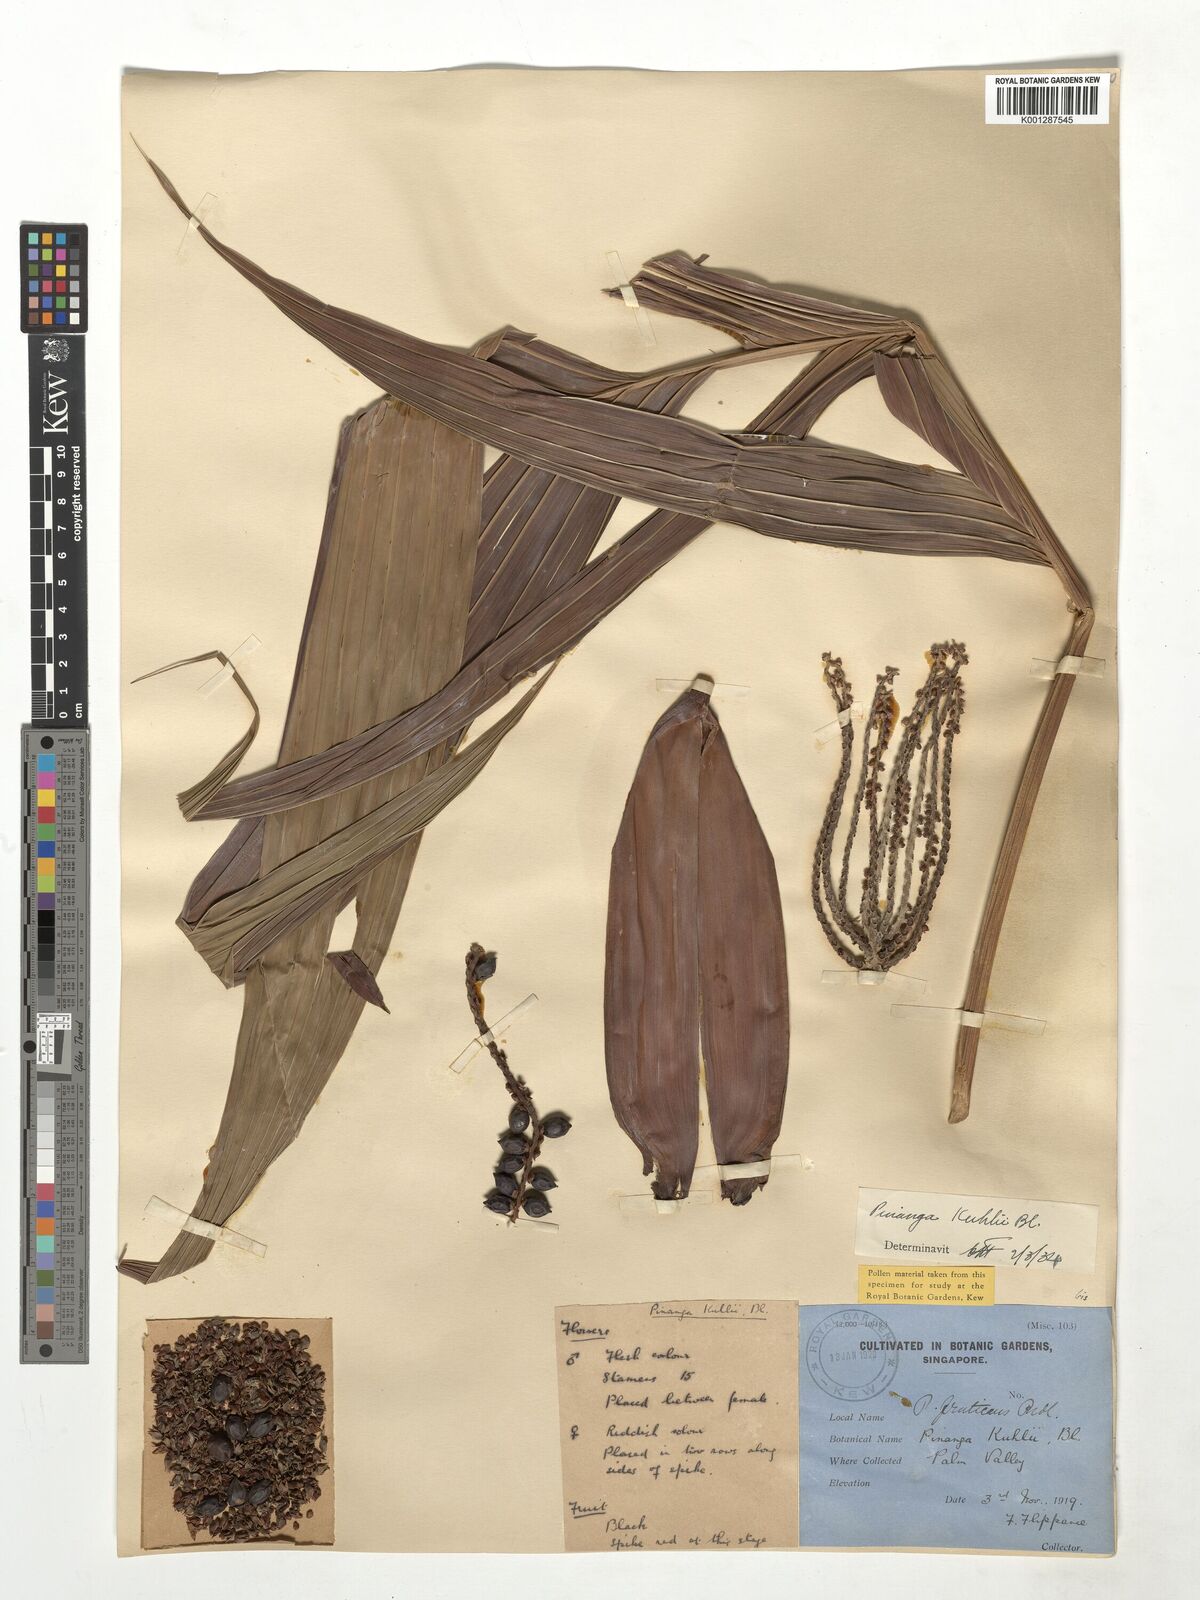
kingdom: Plantae
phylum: Tracheophyta
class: Liliopsida
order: Arecales
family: Arecaceae
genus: Pinanga
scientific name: Pinanga coronata
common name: Ivory cane palm
